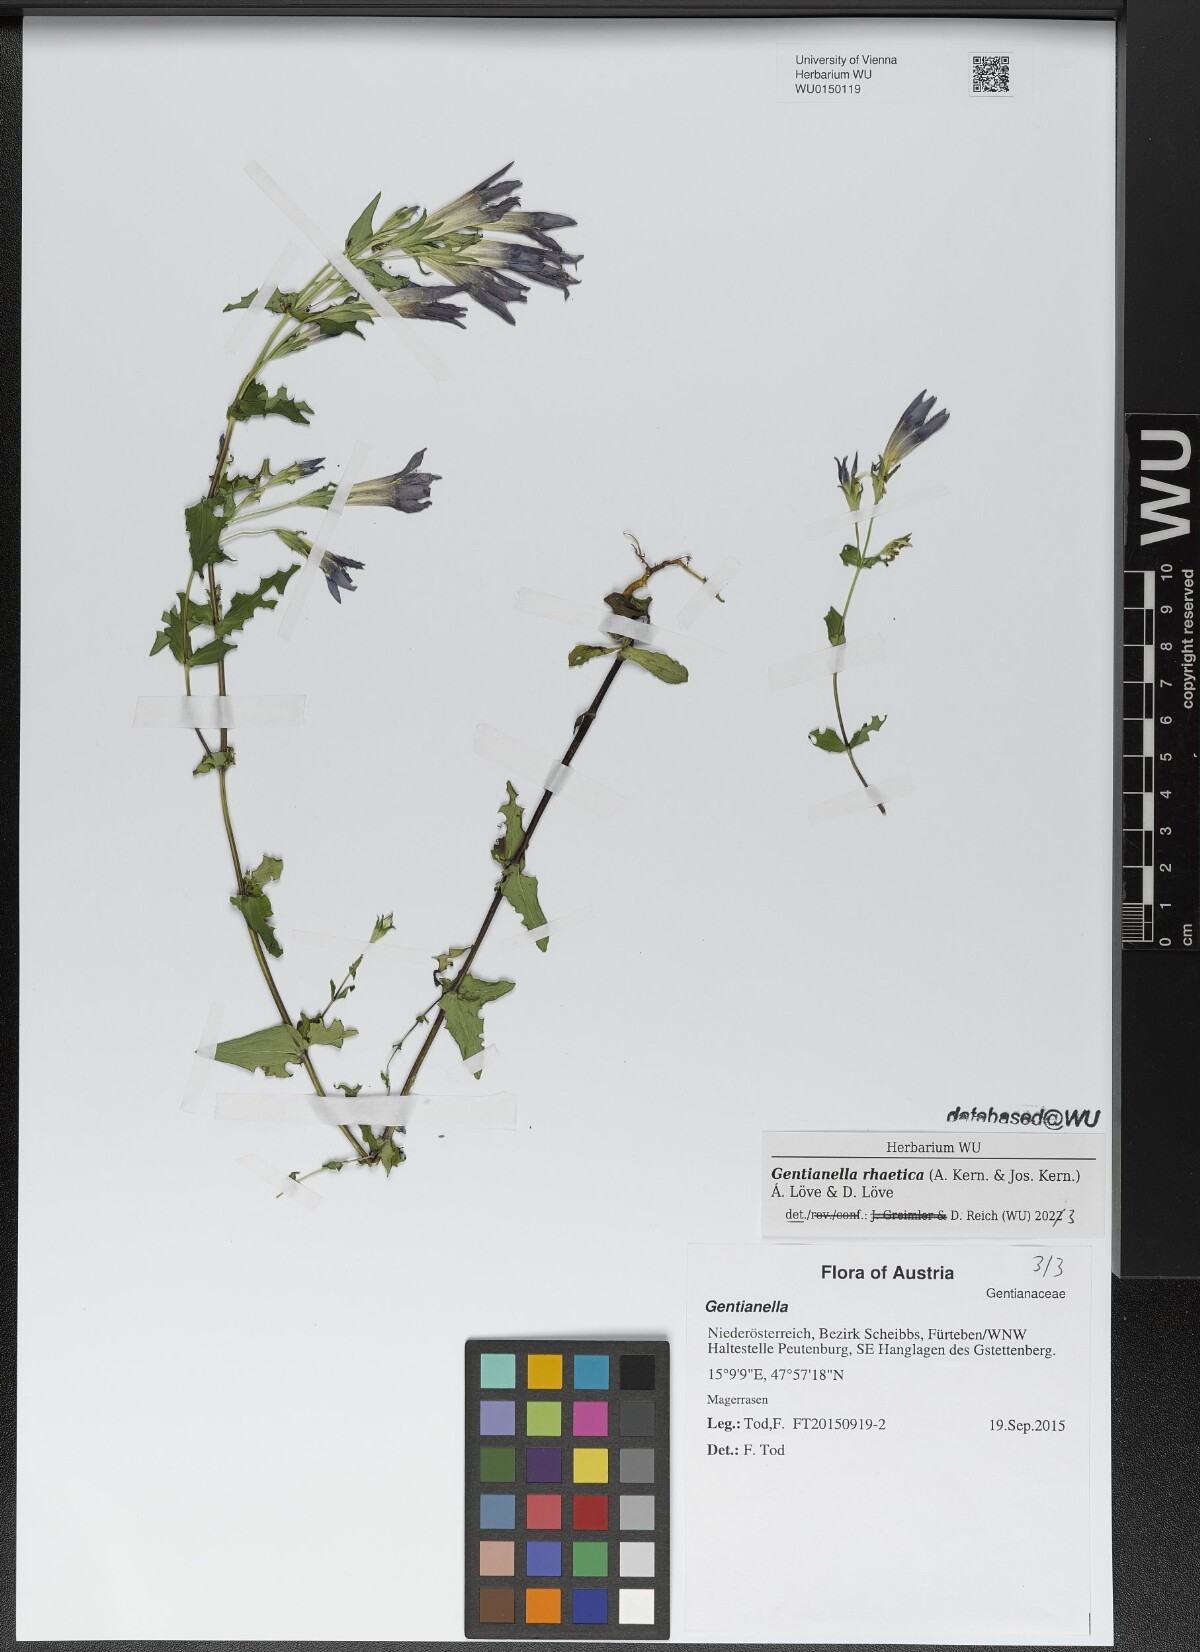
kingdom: Plantae
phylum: Tracheophyta
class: Magnoliopsida
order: Gentianales
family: Gentianaceae
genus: Gentianella
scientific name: Gentianella rhaetica
